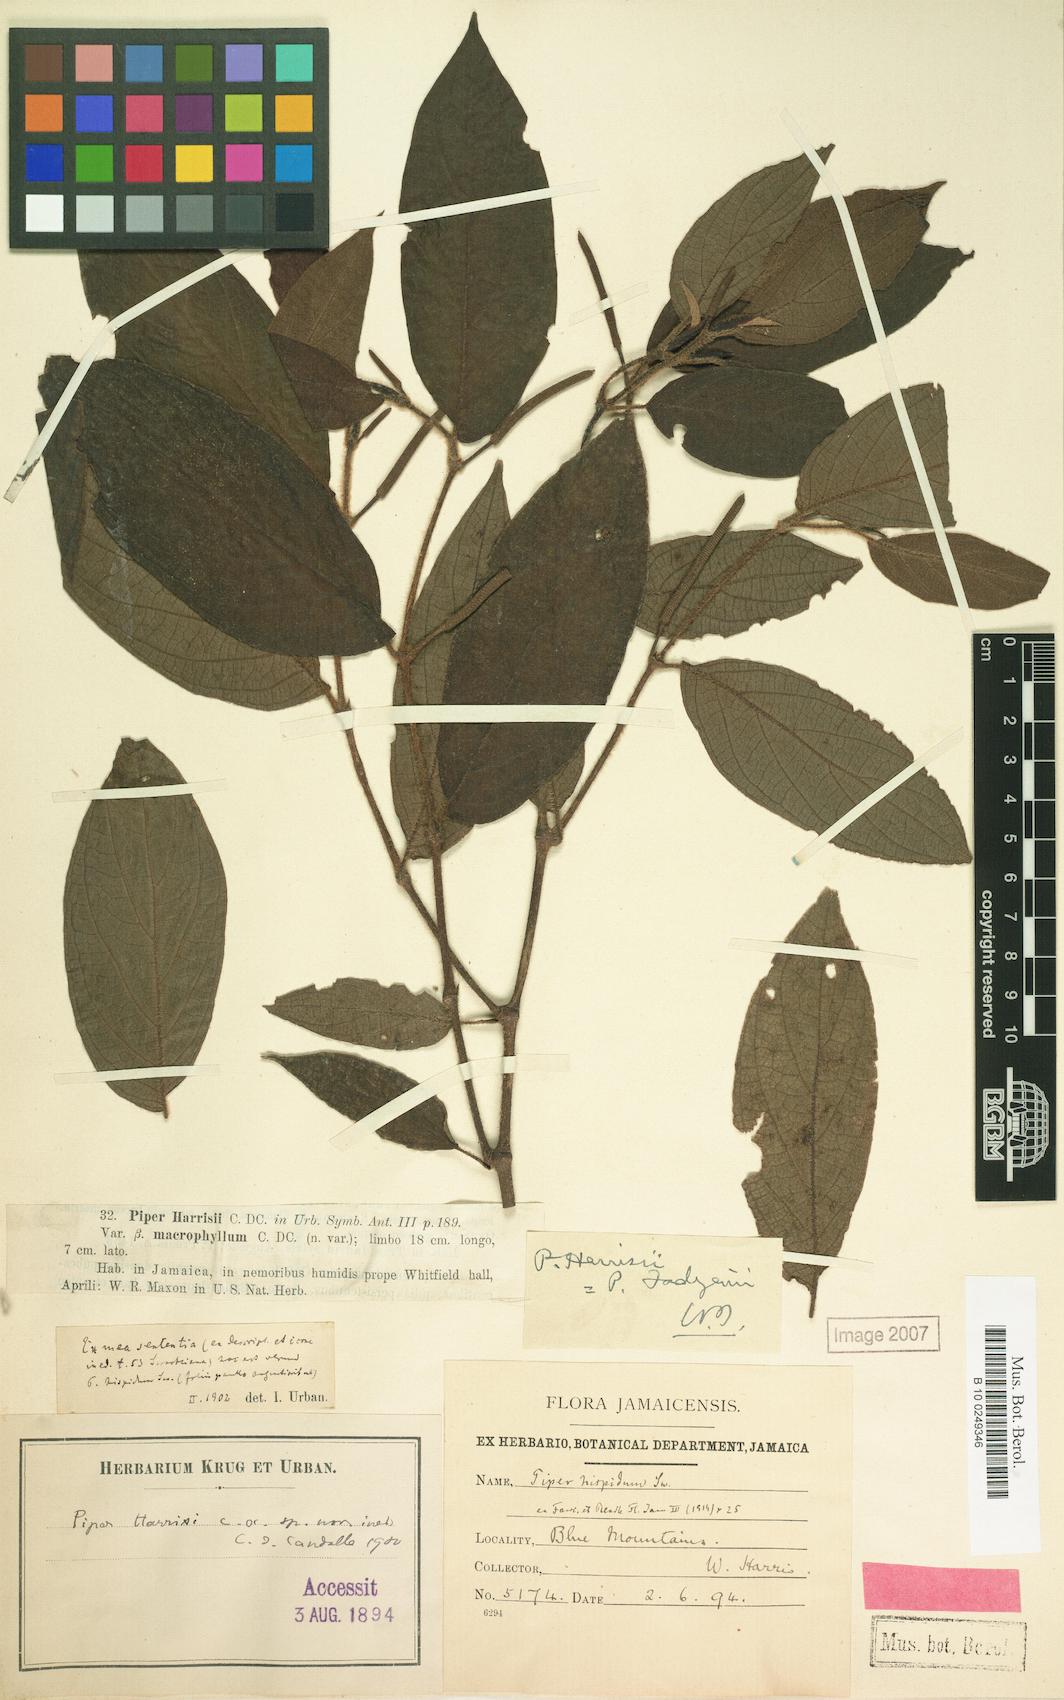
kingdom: Plantae
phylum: Tracheophyta
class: Magnoliopsida
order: Piperales
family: Piperaceae
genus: Piper
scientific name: Piper fadyenii
